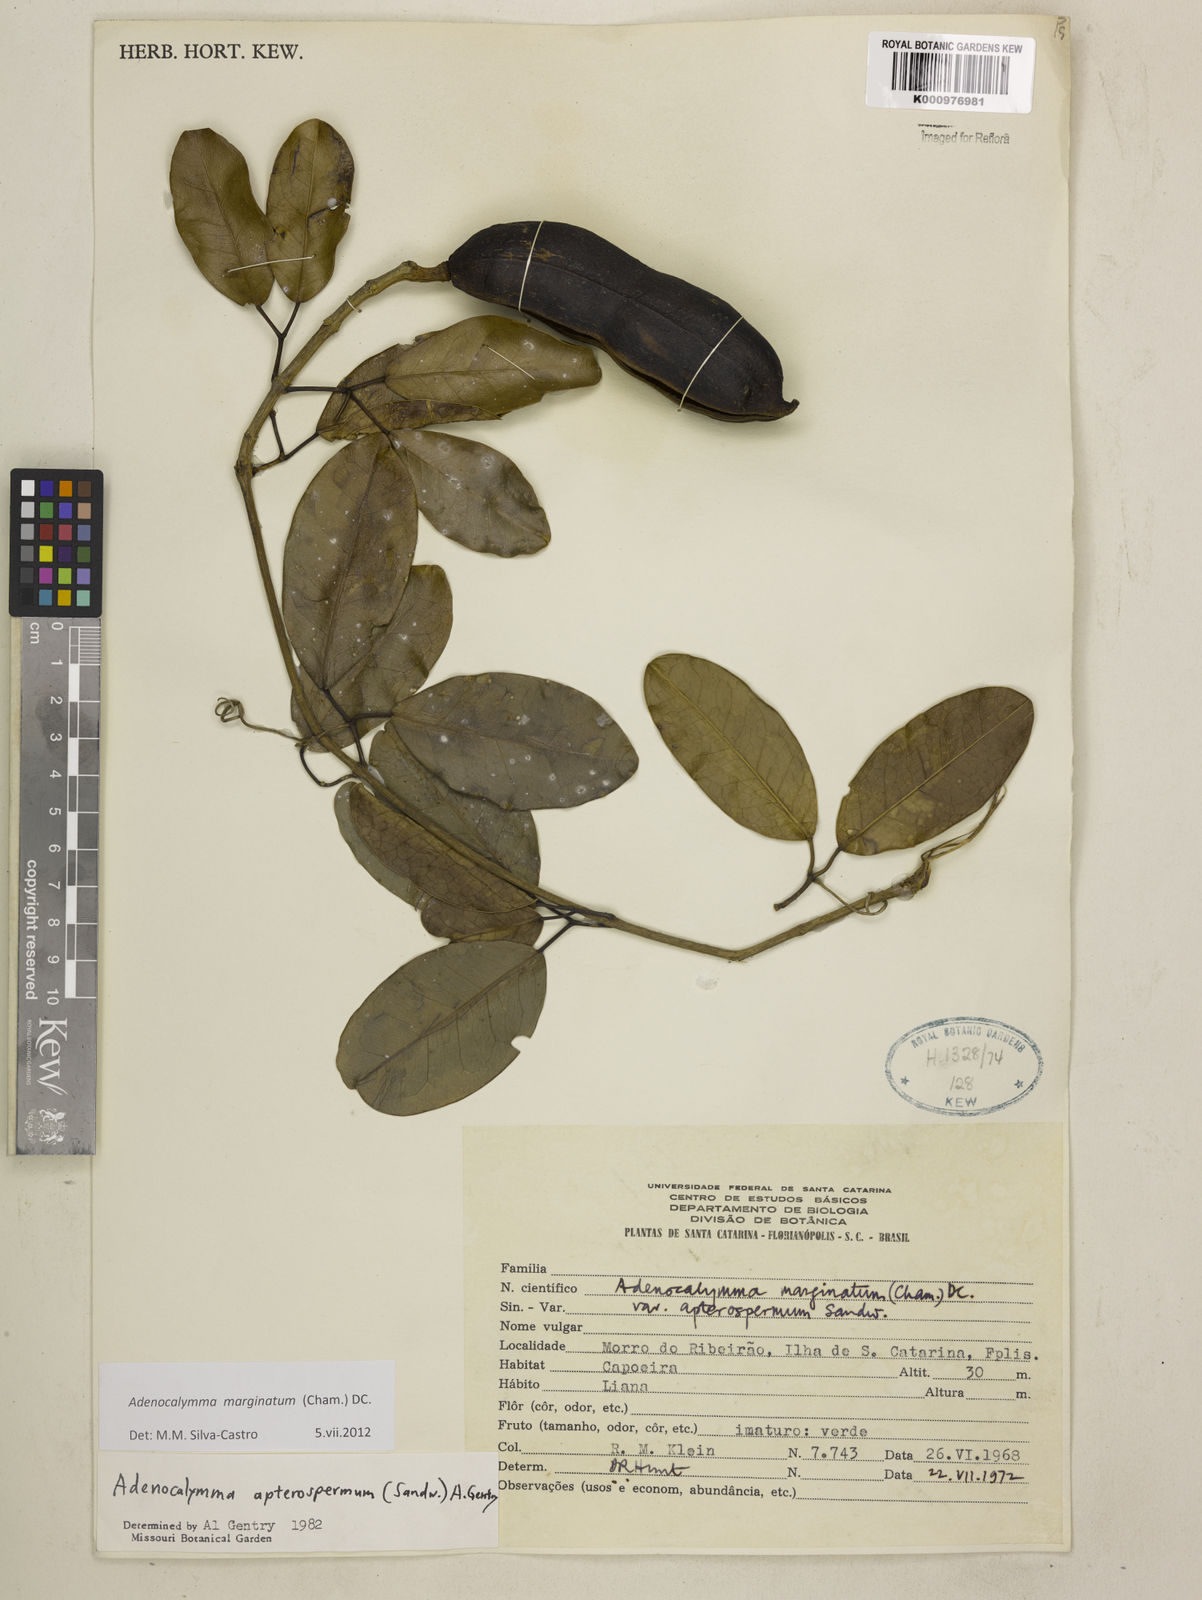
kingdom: Plantae
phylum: Tracheophyta
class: Magnoliopsida
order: Lamiales
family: Bignoniaceae
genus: Adenocalymma
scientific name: Adenocalymma marginatum
